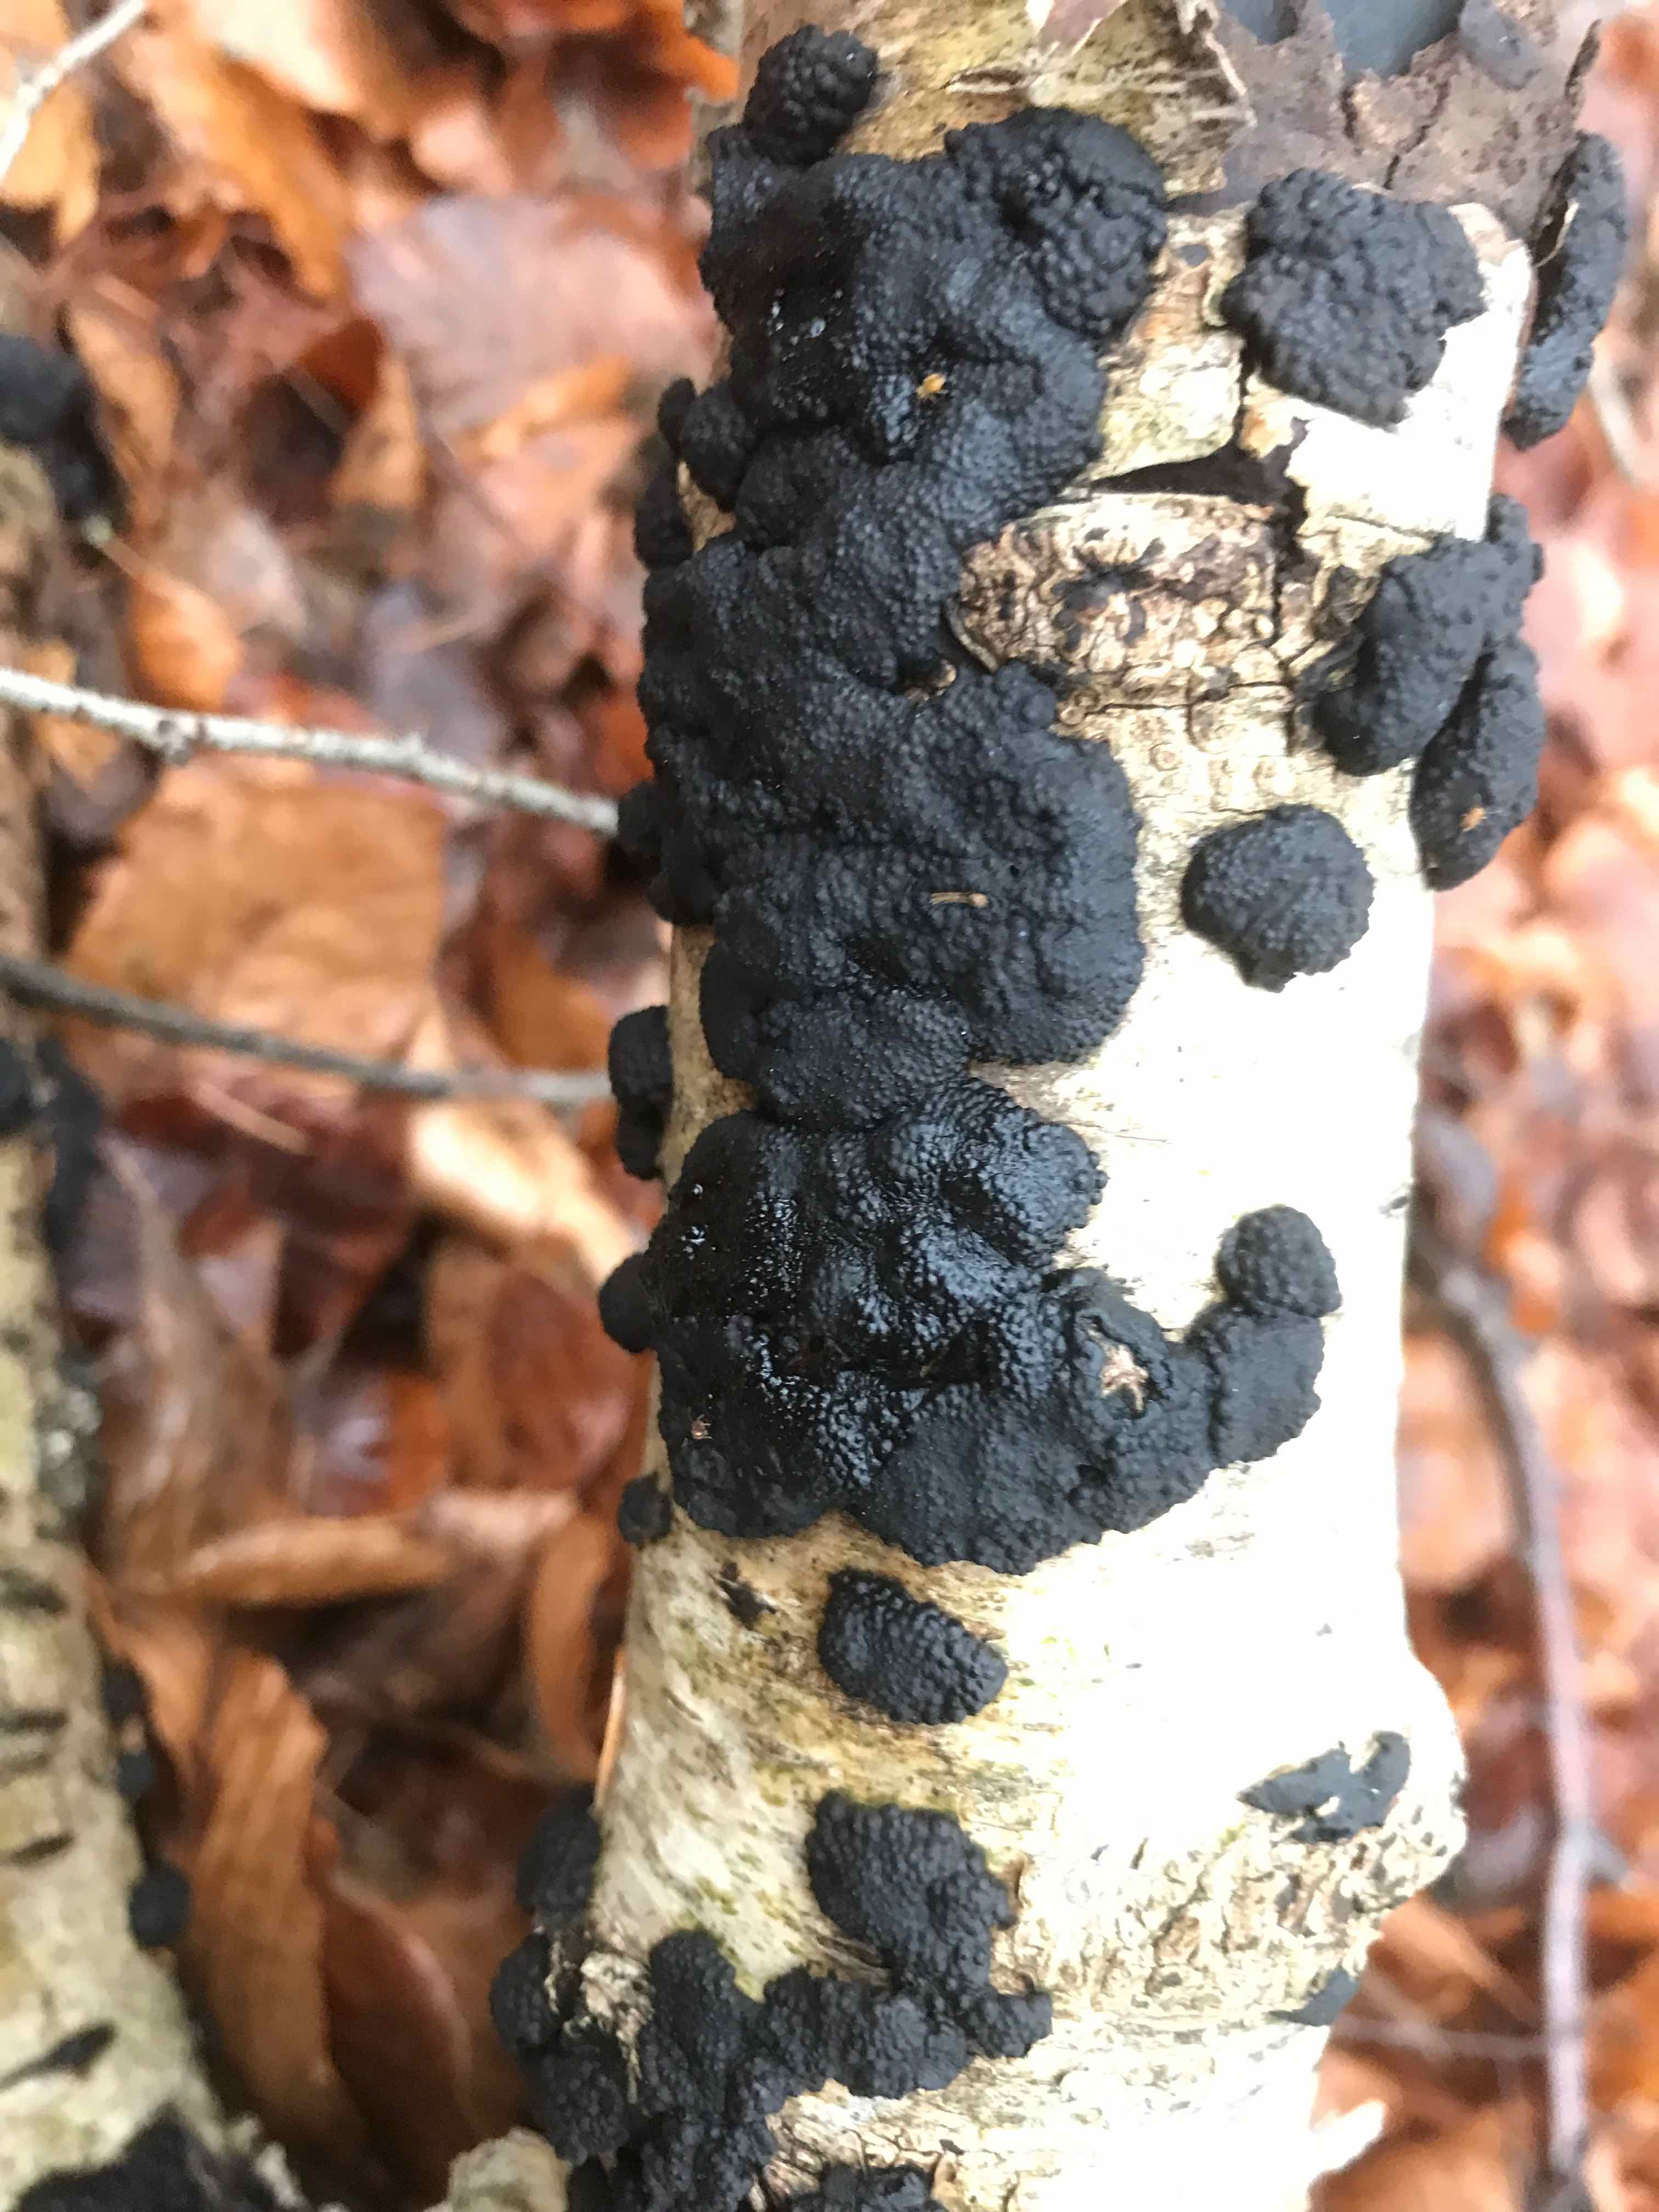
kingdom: Fungi
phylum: Ascomycota
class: Sordariomycetes
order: Xylariales
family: Hypoxylaceae
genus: Jackrogersella
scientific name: Jackrogersella multiformis
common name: foranderlig kulbær
